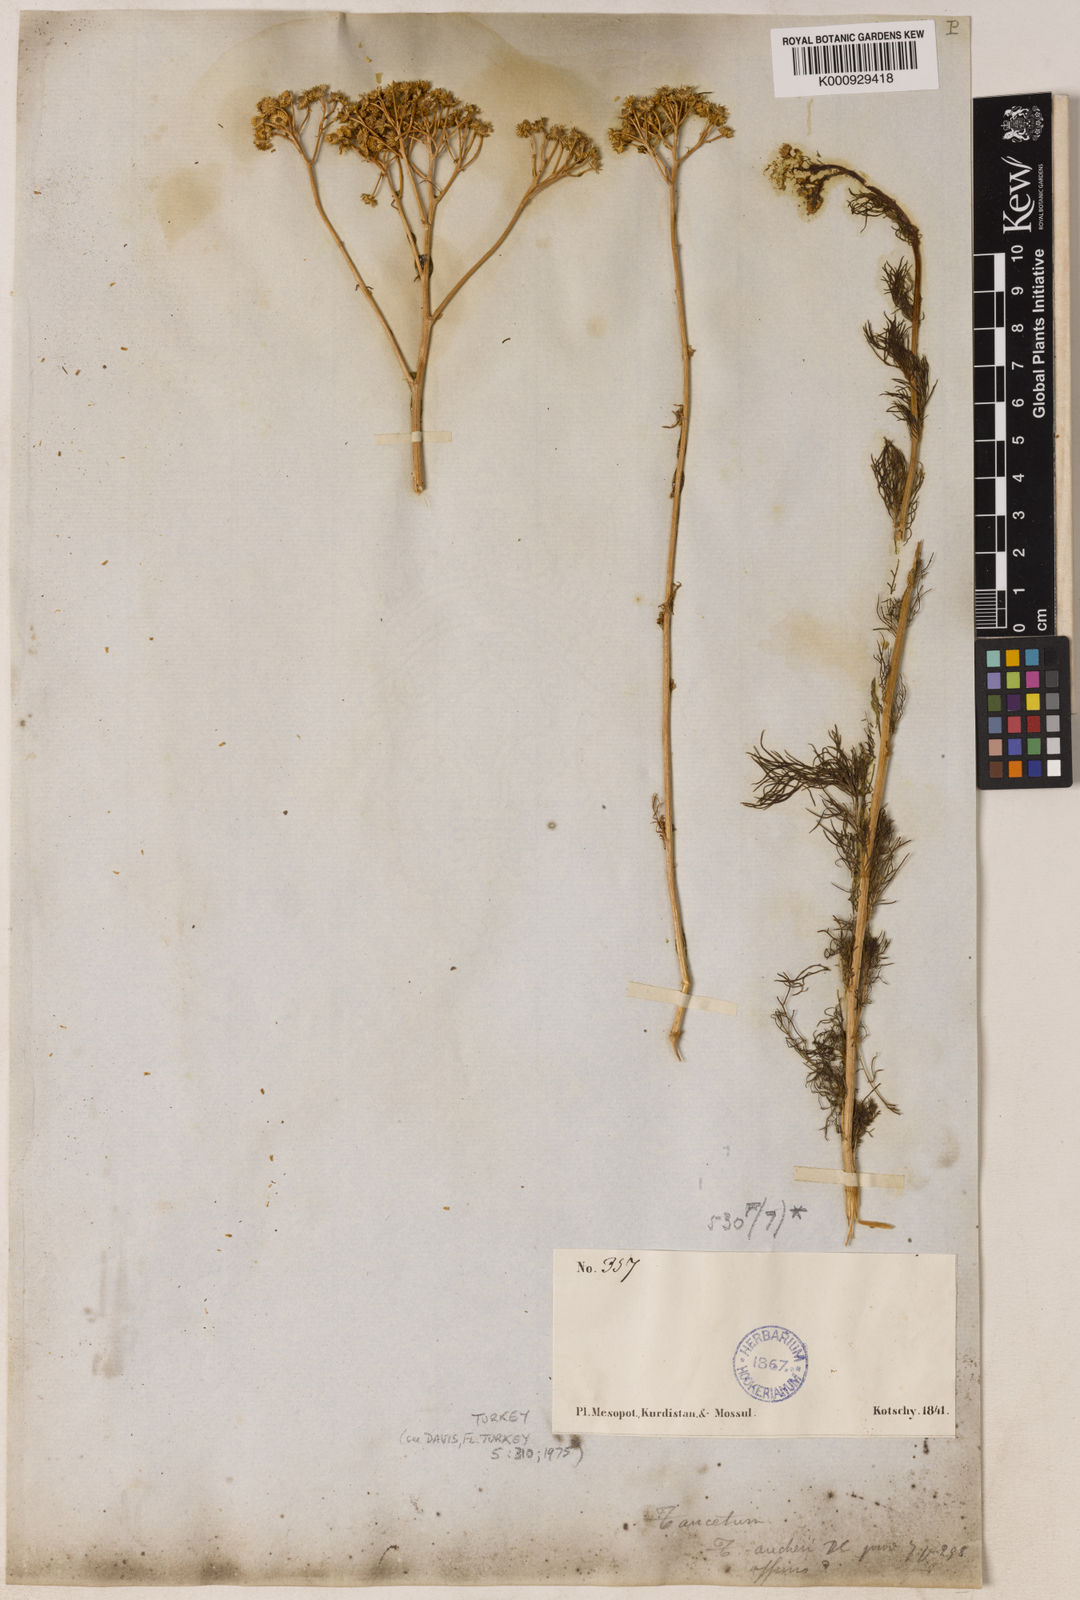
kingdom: Plantae
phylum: Tracheophyta
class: Magnoliopsida
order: Asterales
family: Asteraceae
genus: Tripleurospermum
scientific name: Tripleurospermum microcephalum
